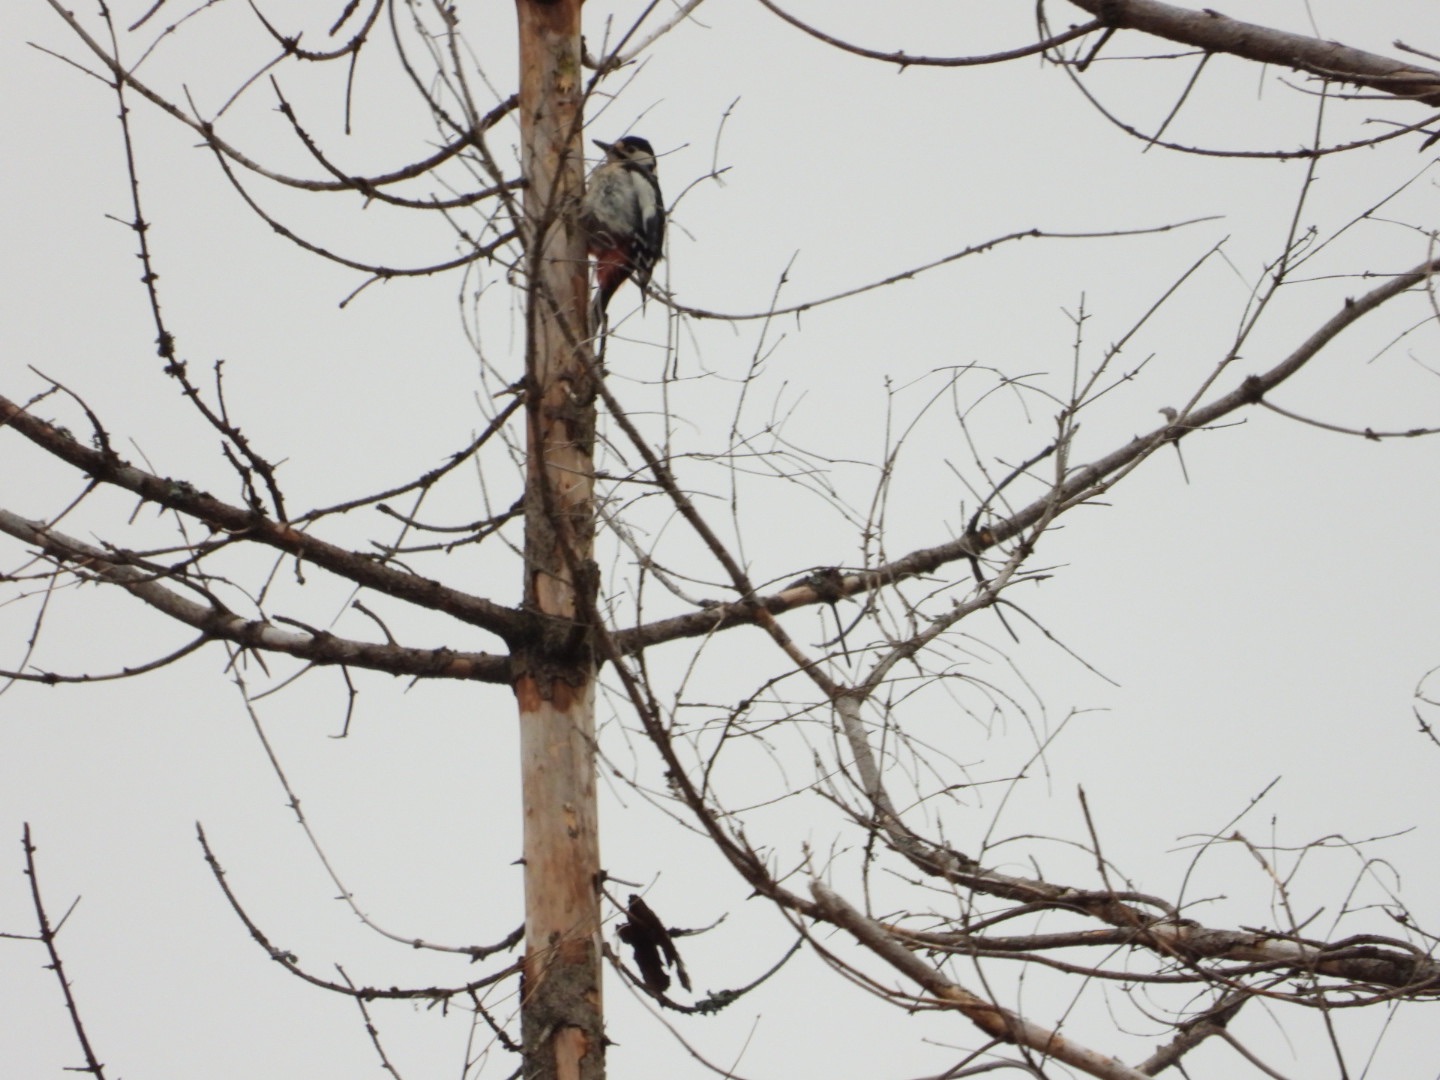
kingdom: Animalia
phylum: Chordata
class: Aves
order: Piciformes
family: Picidae
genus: Dendrocopos
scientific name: Dendrocopos major
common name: Stor flagspætte
